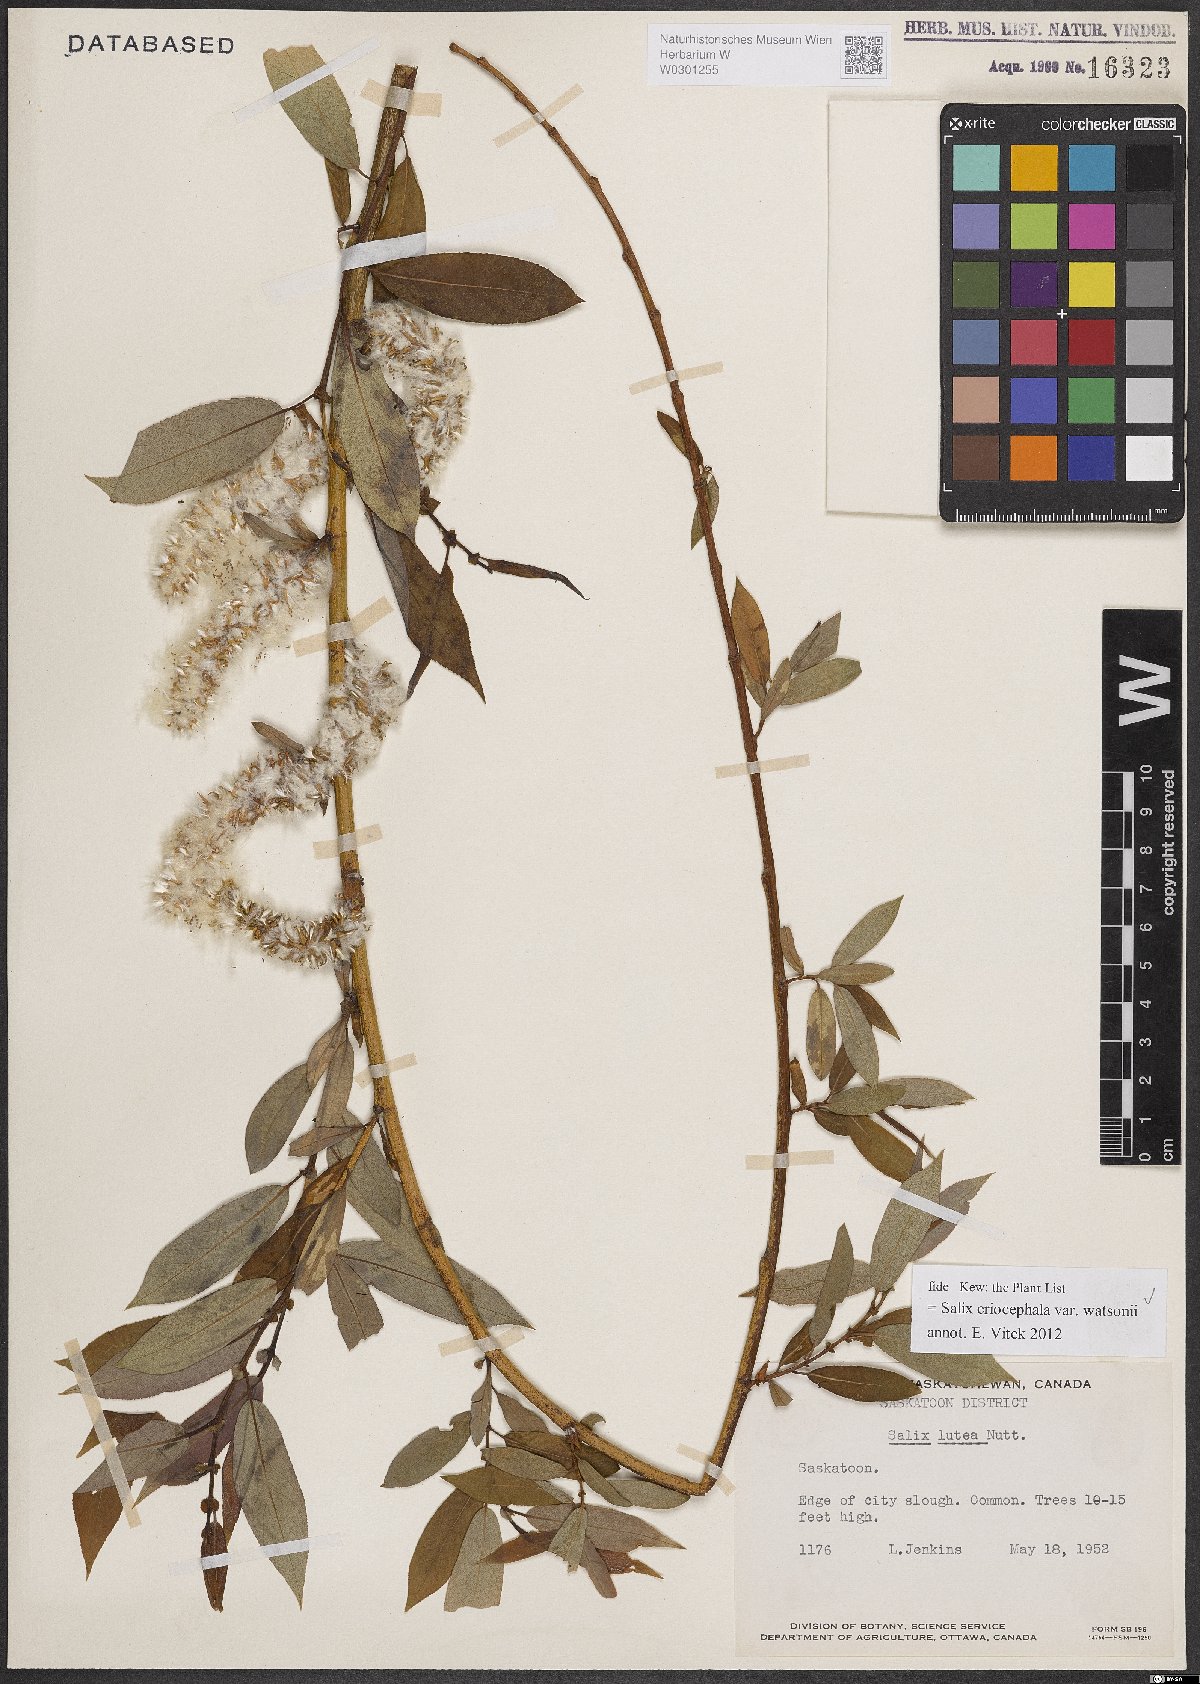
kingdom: Plantae
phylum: Tracheophyta
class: Magnoliopsida
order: Malpighiales
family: Salicaceae
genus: Salix
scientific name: Salix lutea
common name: Yellow willow
